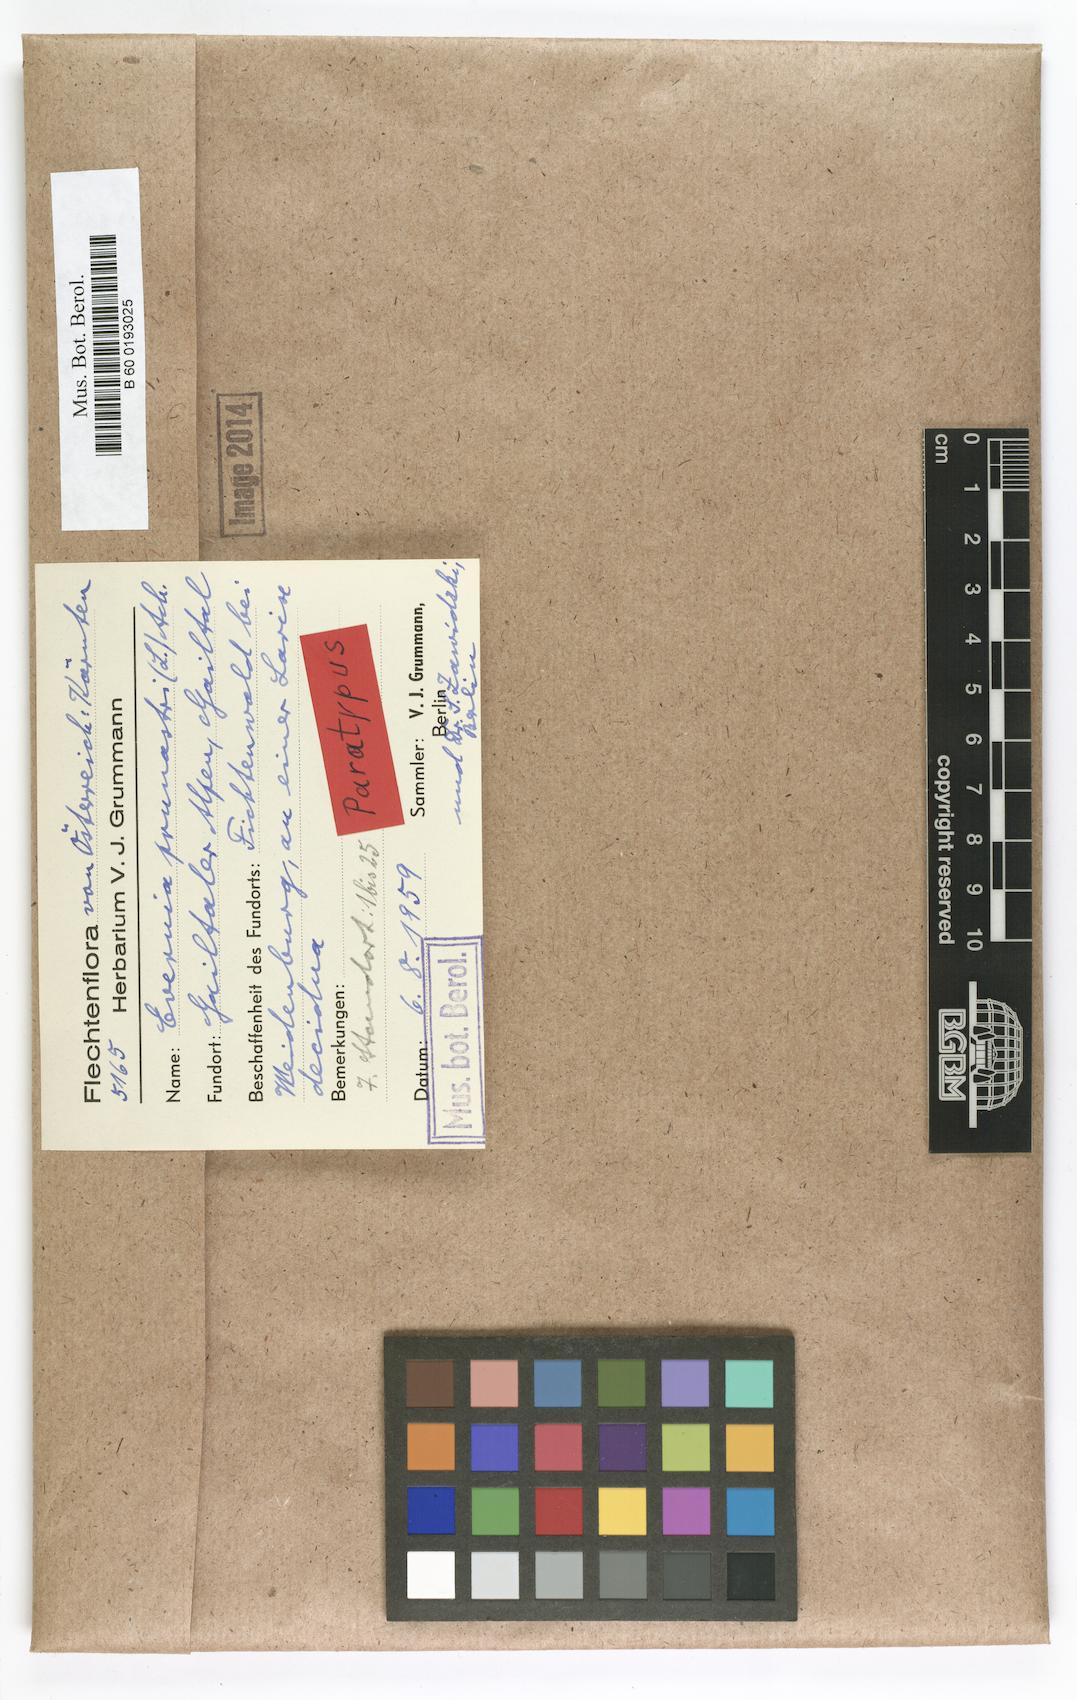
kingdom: Fungi
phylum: Ascomycota
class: Lecanoromycetes
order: Lecanorales
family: Parmeliaceae
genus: Evernia
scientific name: Evernia prunastri
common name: Oak moss
